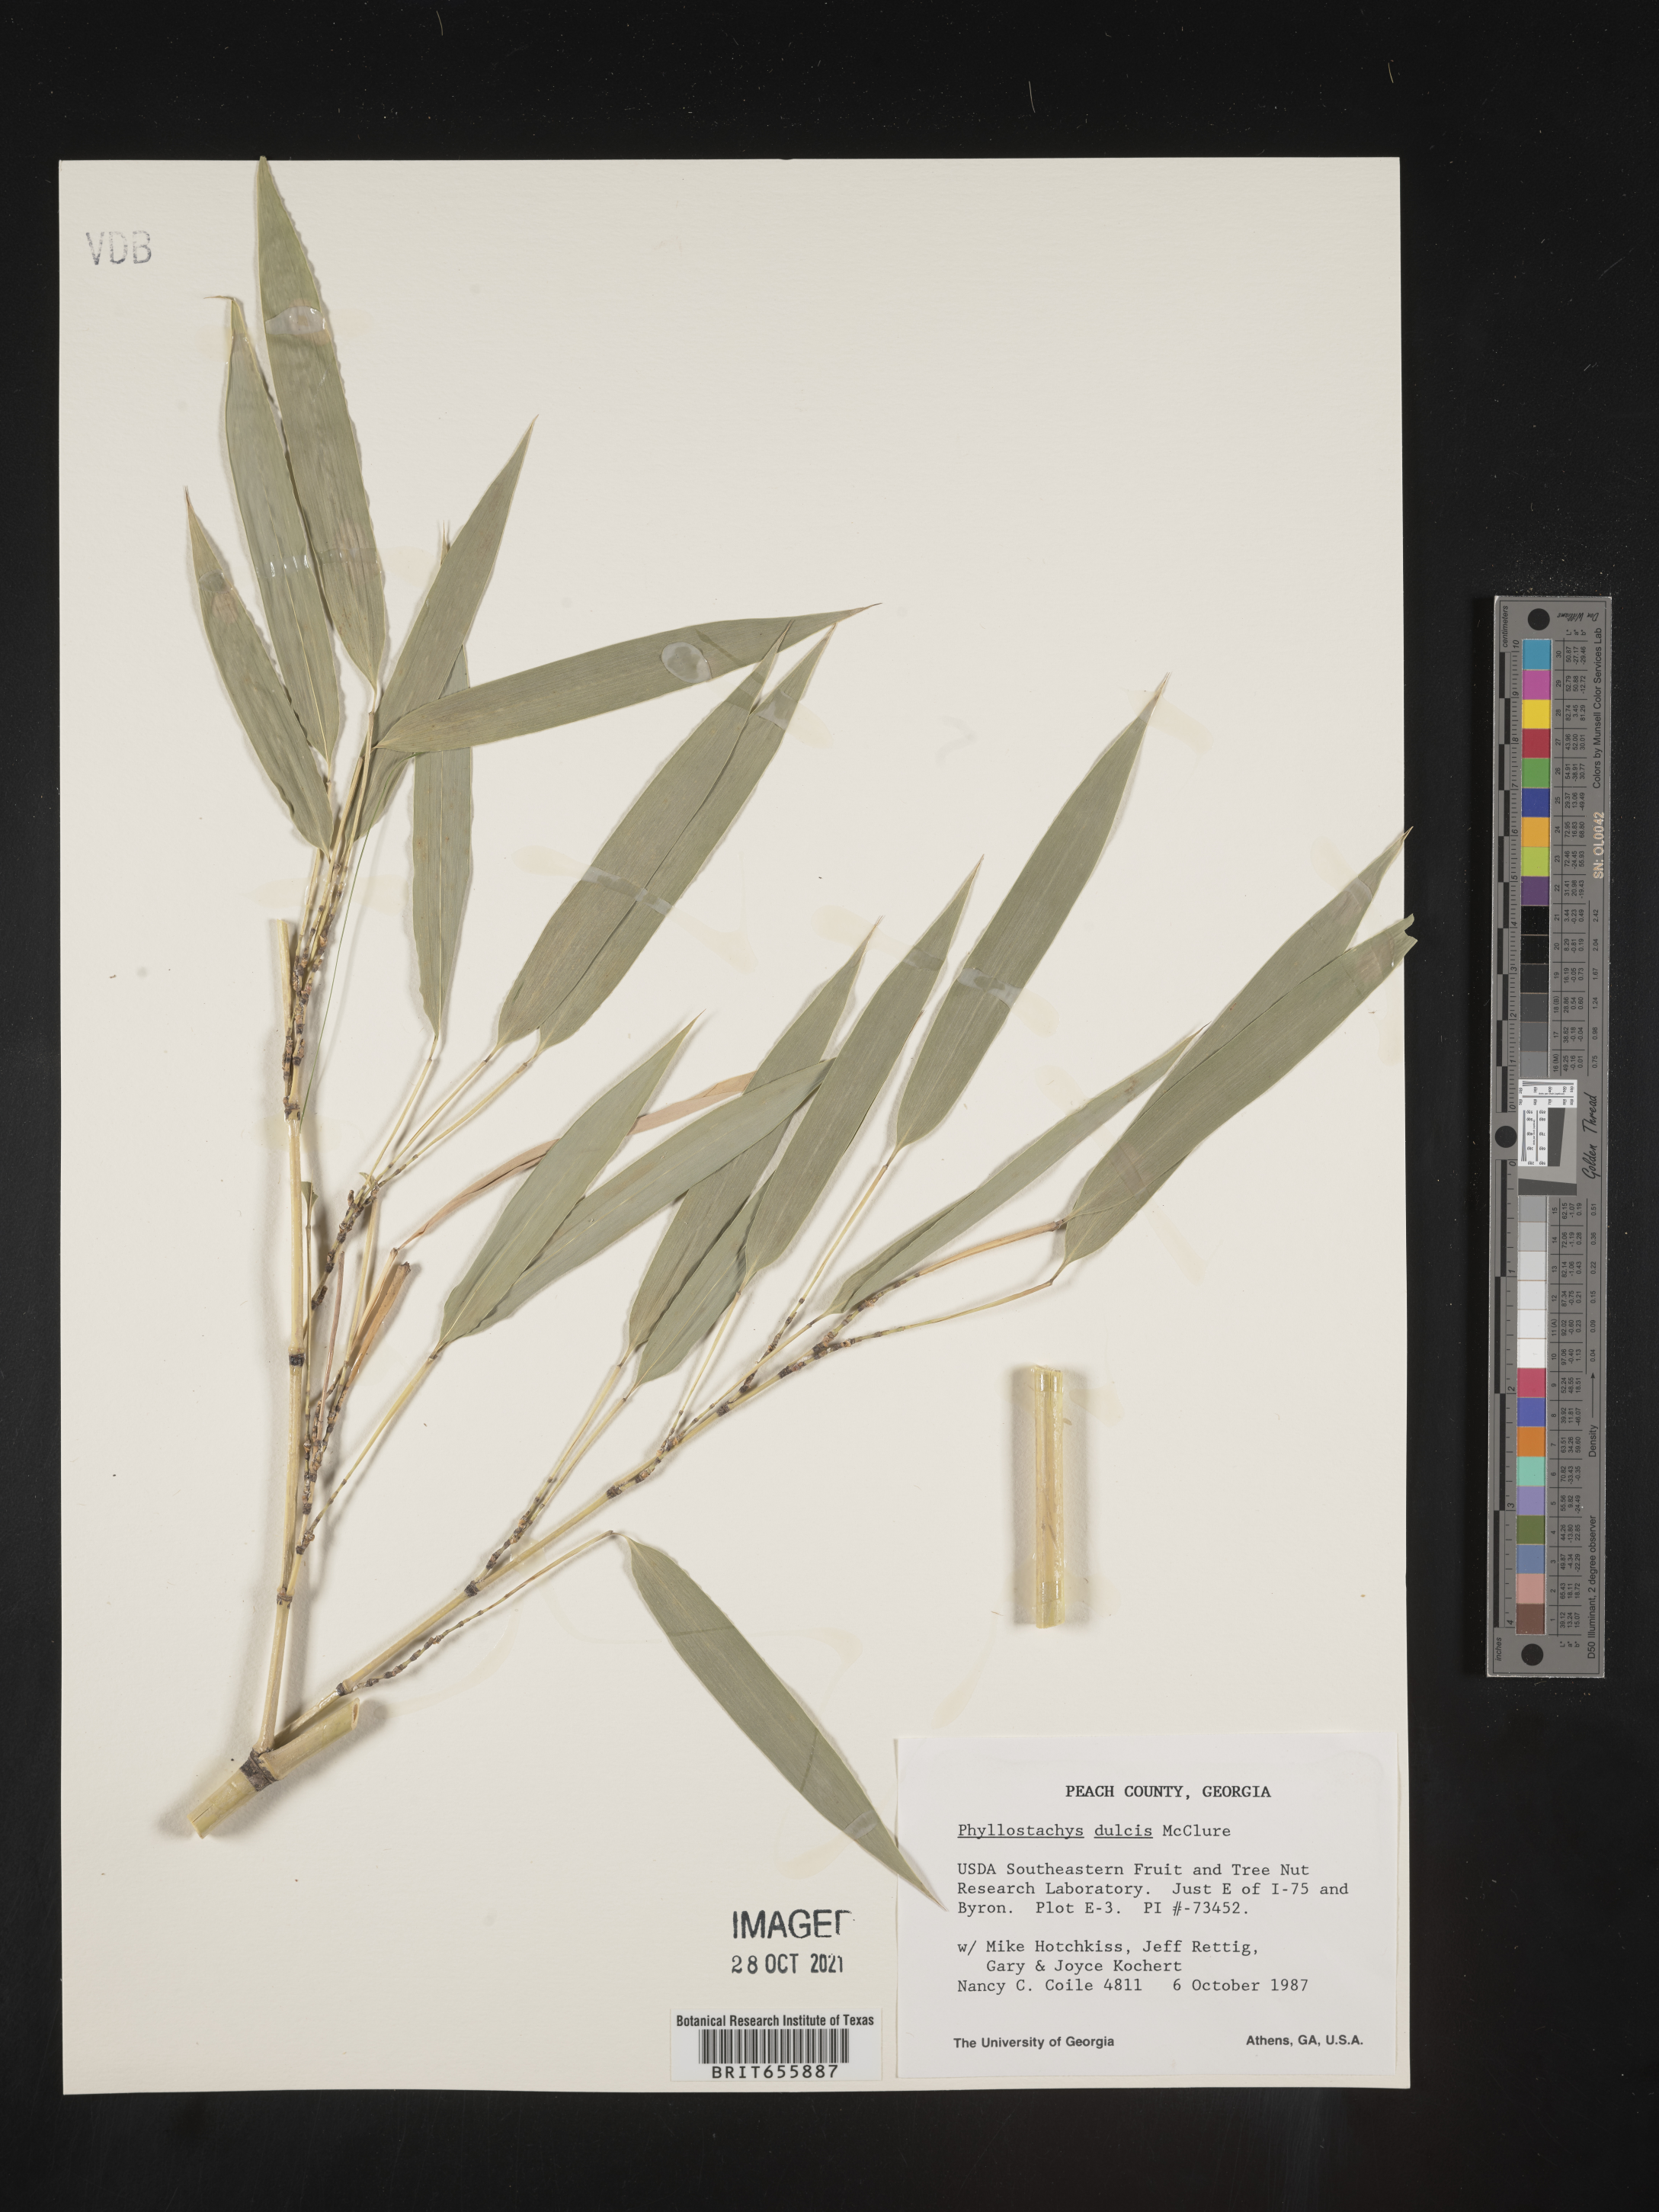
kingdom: Plantae
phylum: Tracheophyta
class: Liliopsida
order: Poales
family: Poaceae
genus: Phyllostachys
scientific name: Phyllostachys
